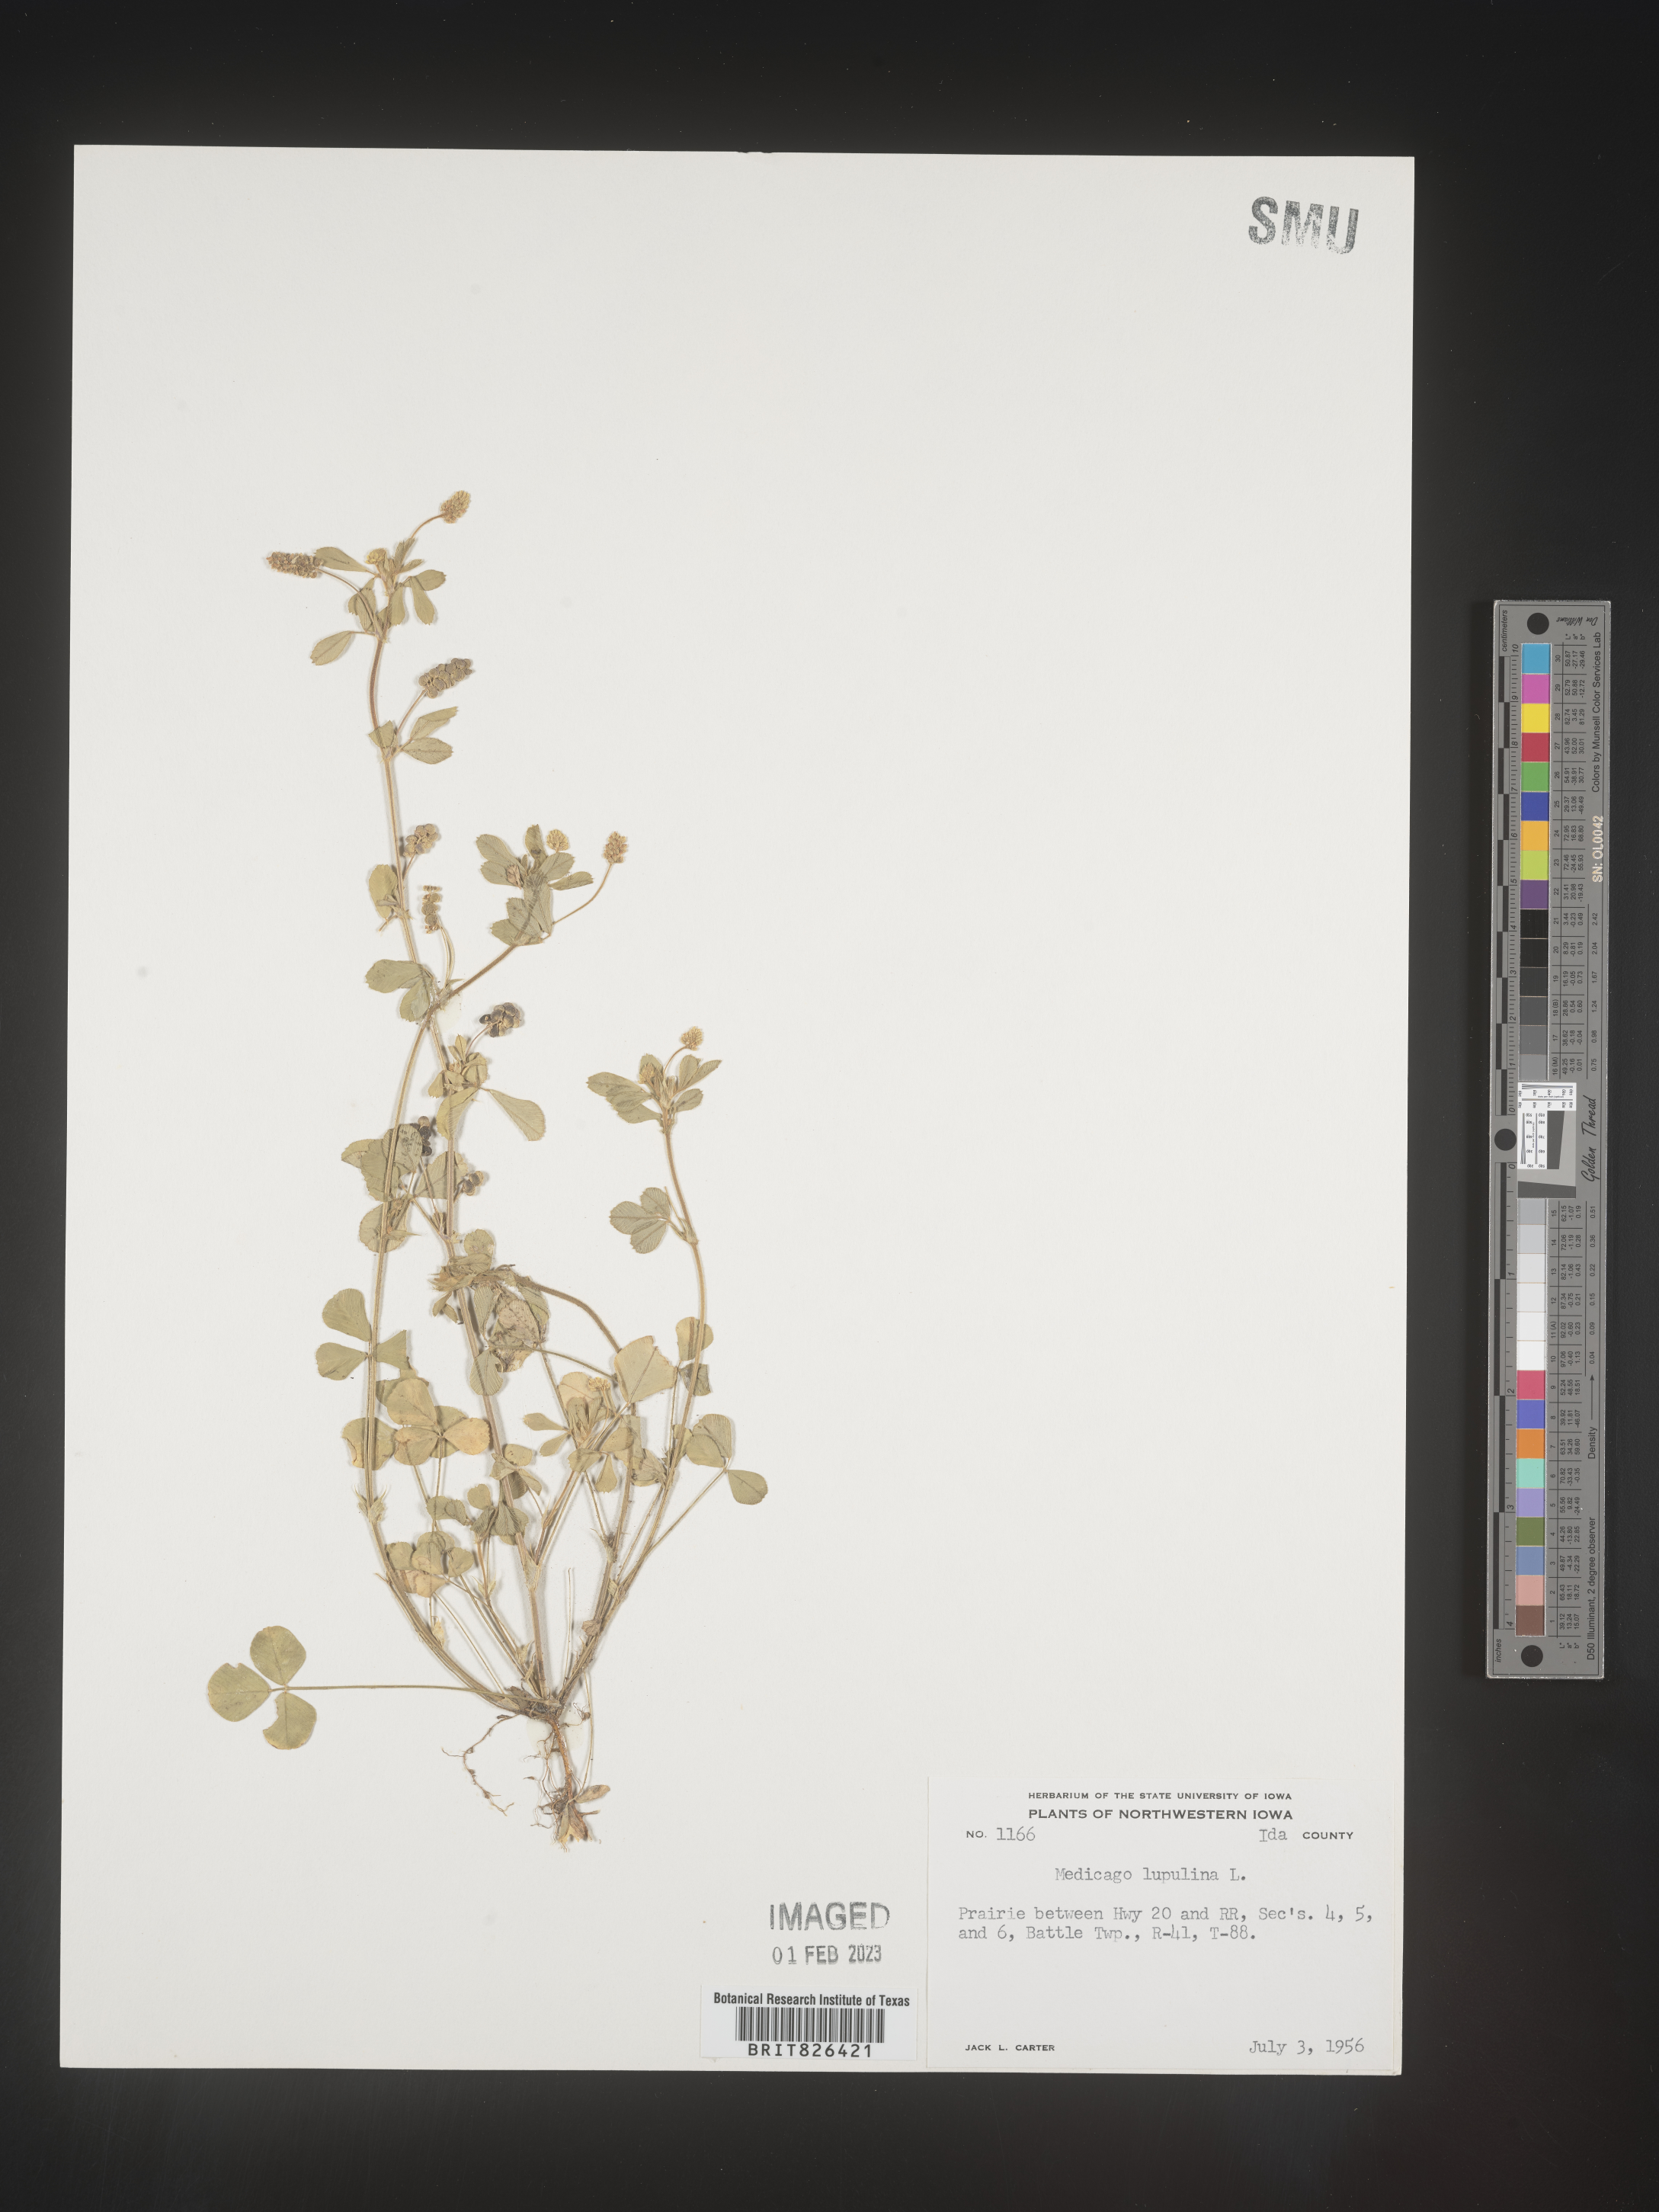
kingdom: Plantae
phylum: Tracheophyta
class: Magnoliopsida
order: Fabales
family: Fabaceae
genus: Medicago
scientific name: Medicago lupulina
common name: Black medick
